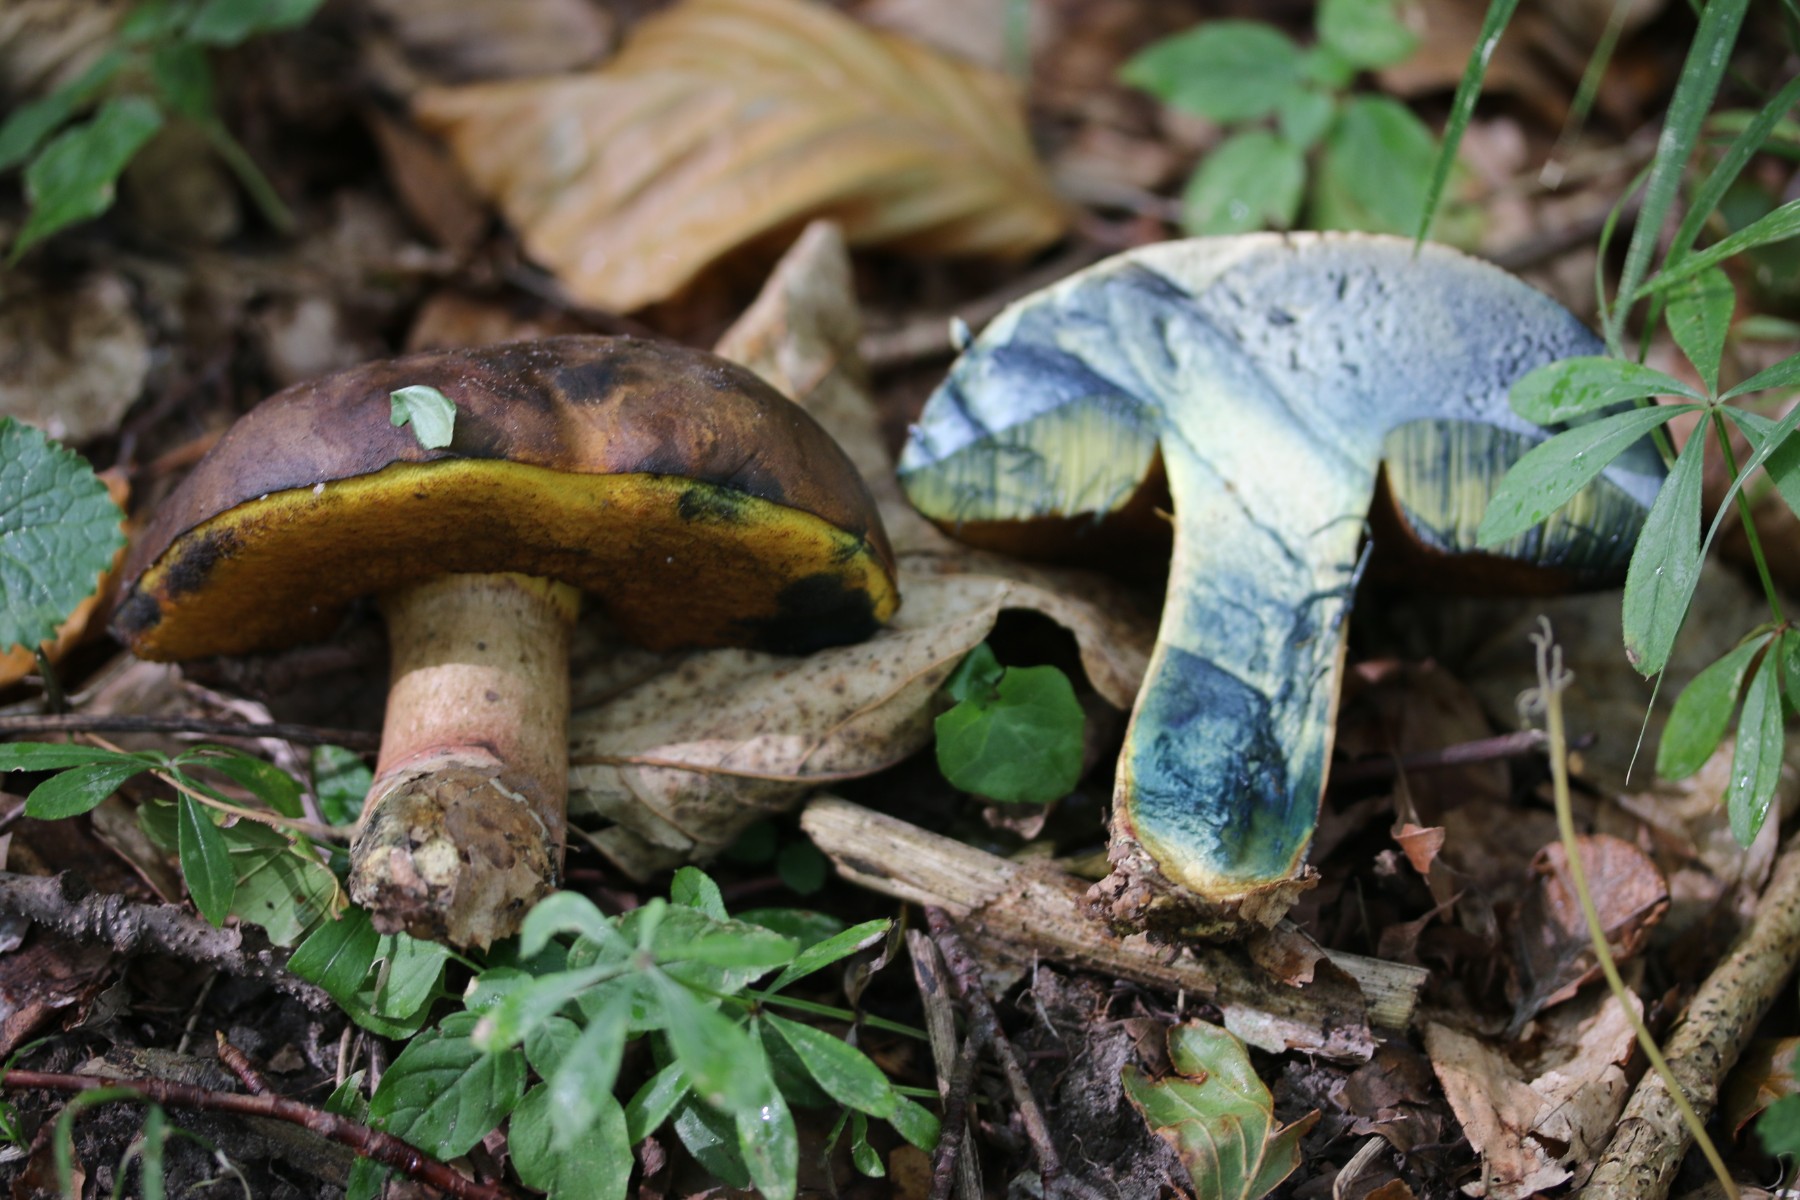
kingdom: Fungi
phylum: Basidiomycota
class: Agaricomycetes
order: Boletales
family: Boletaceae
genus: Cyanoboletus
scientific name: Cyanoboletus pulverulentus
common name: sortblånende rørhat
